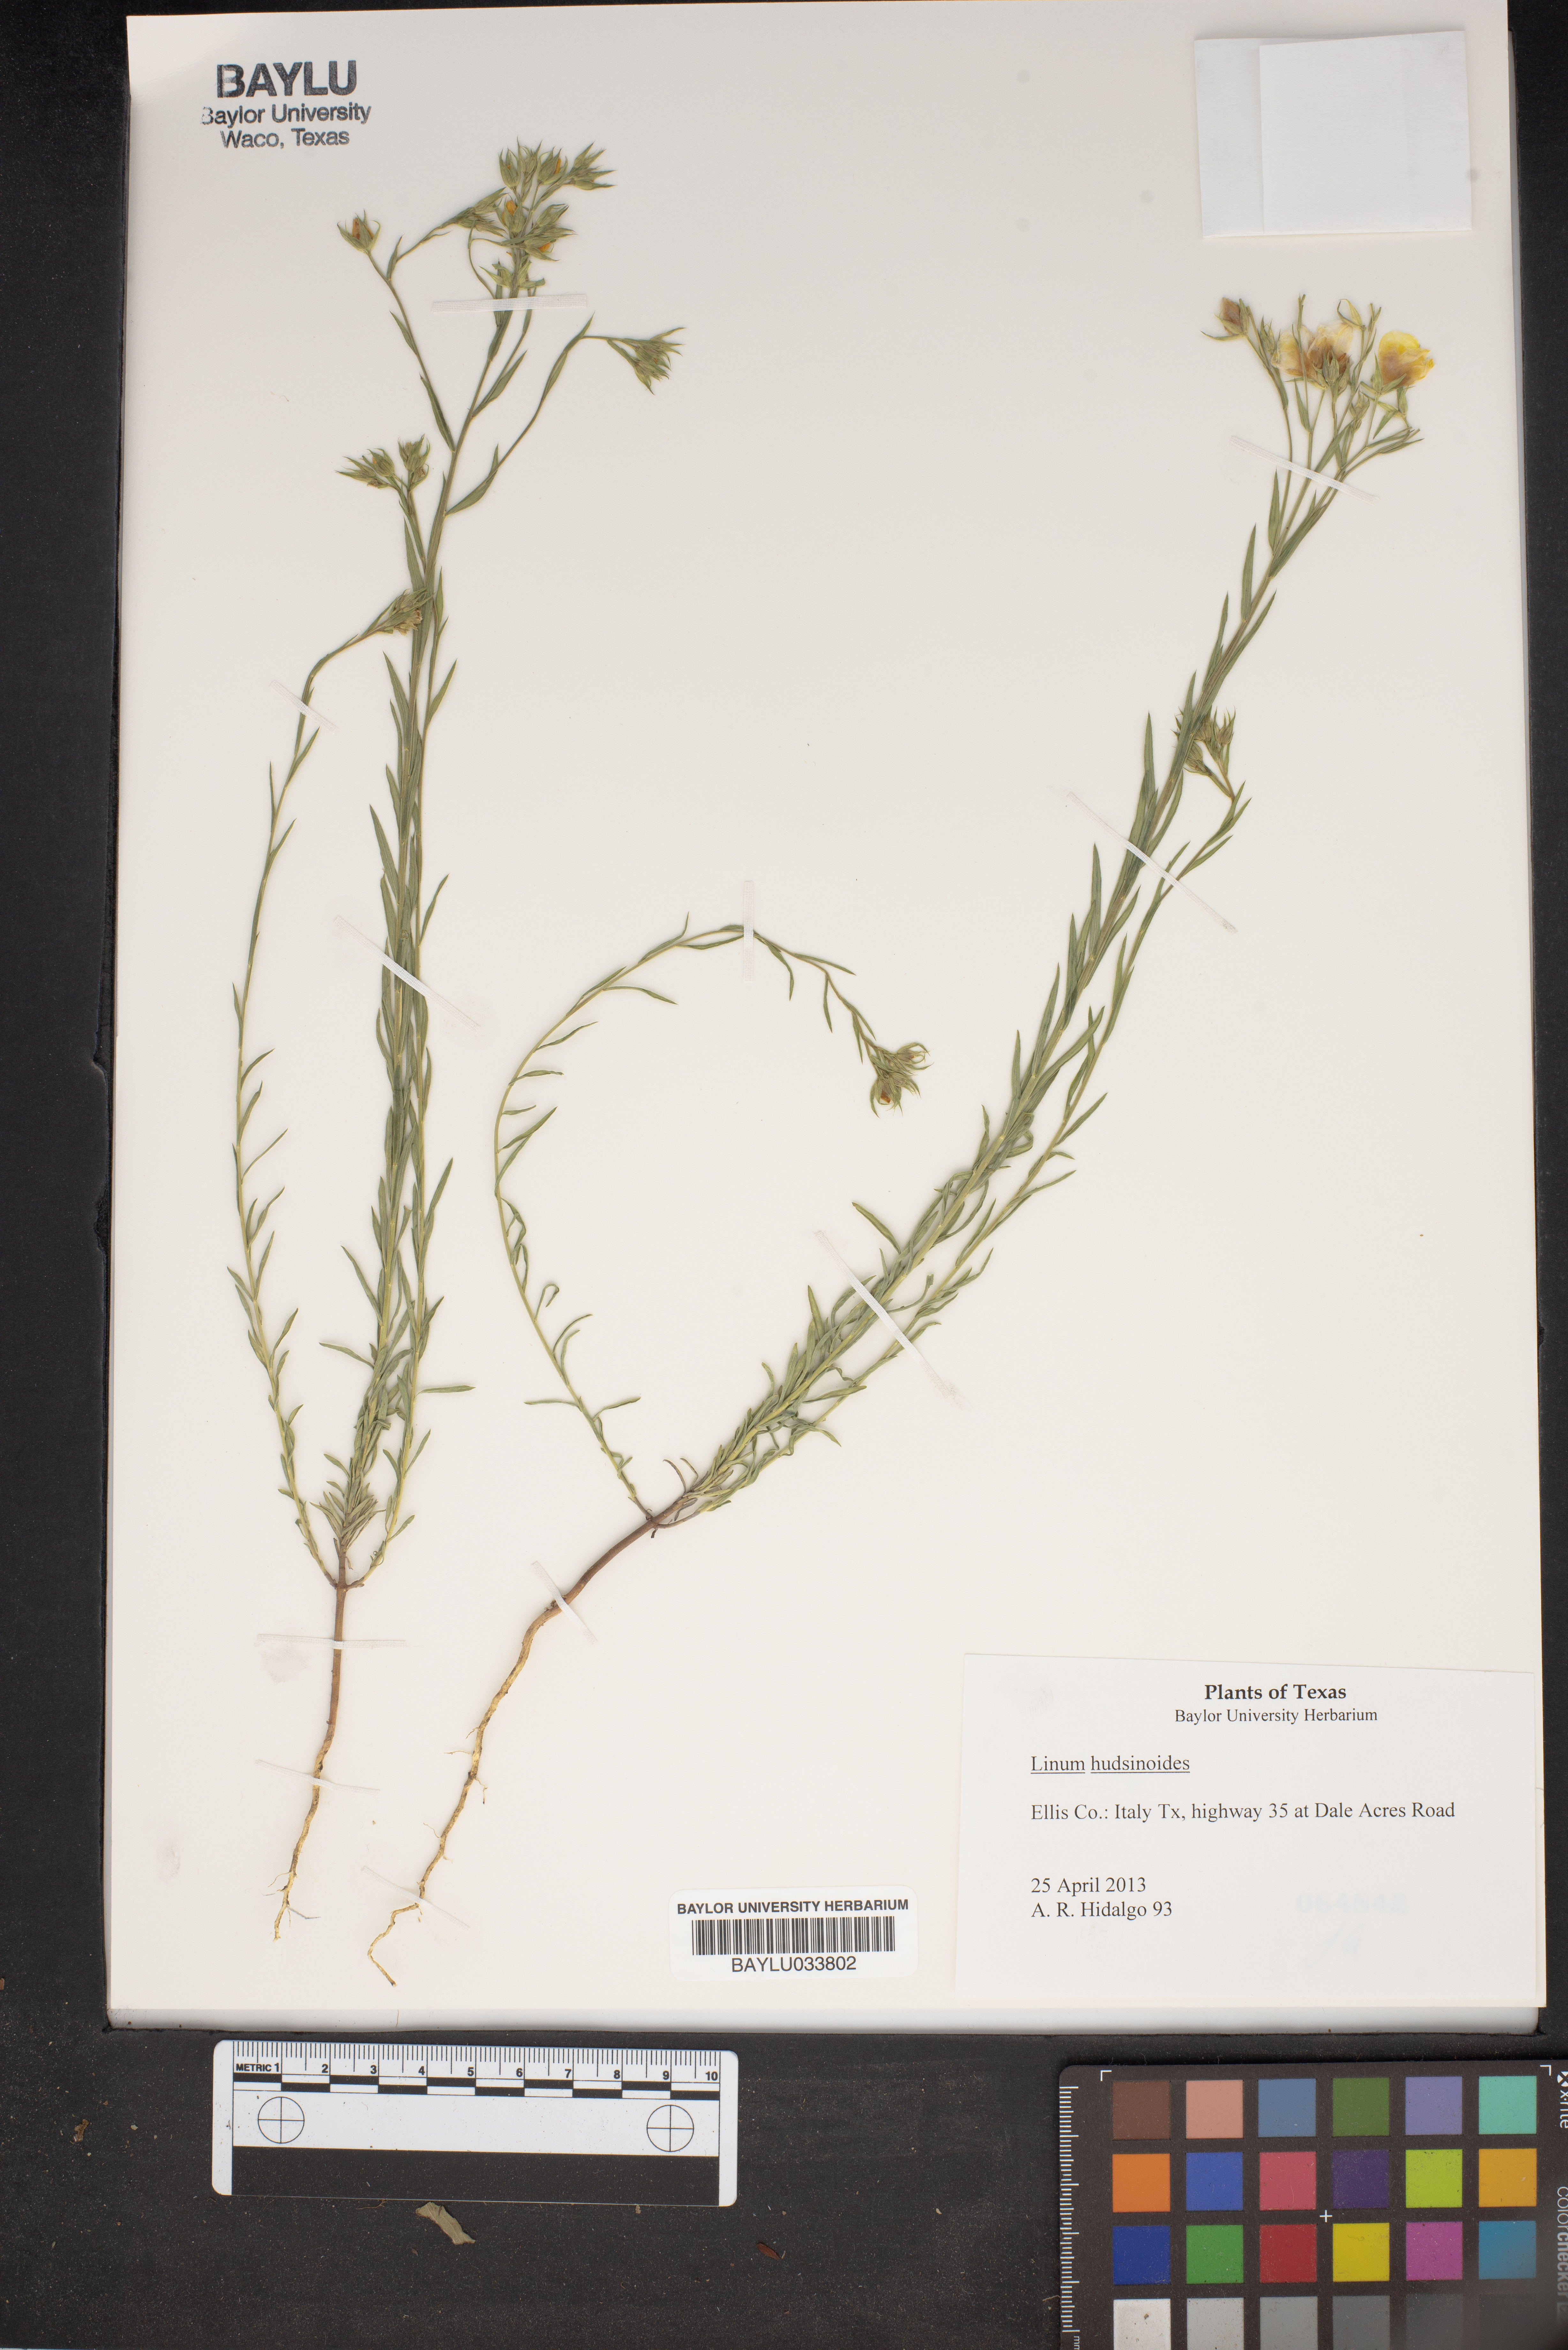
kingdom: Plantae
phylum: Tracheophyta
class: Magnoliopsida
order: Malpighiales
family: Linaceae
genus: Linum
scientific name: Linum hudsonioides
